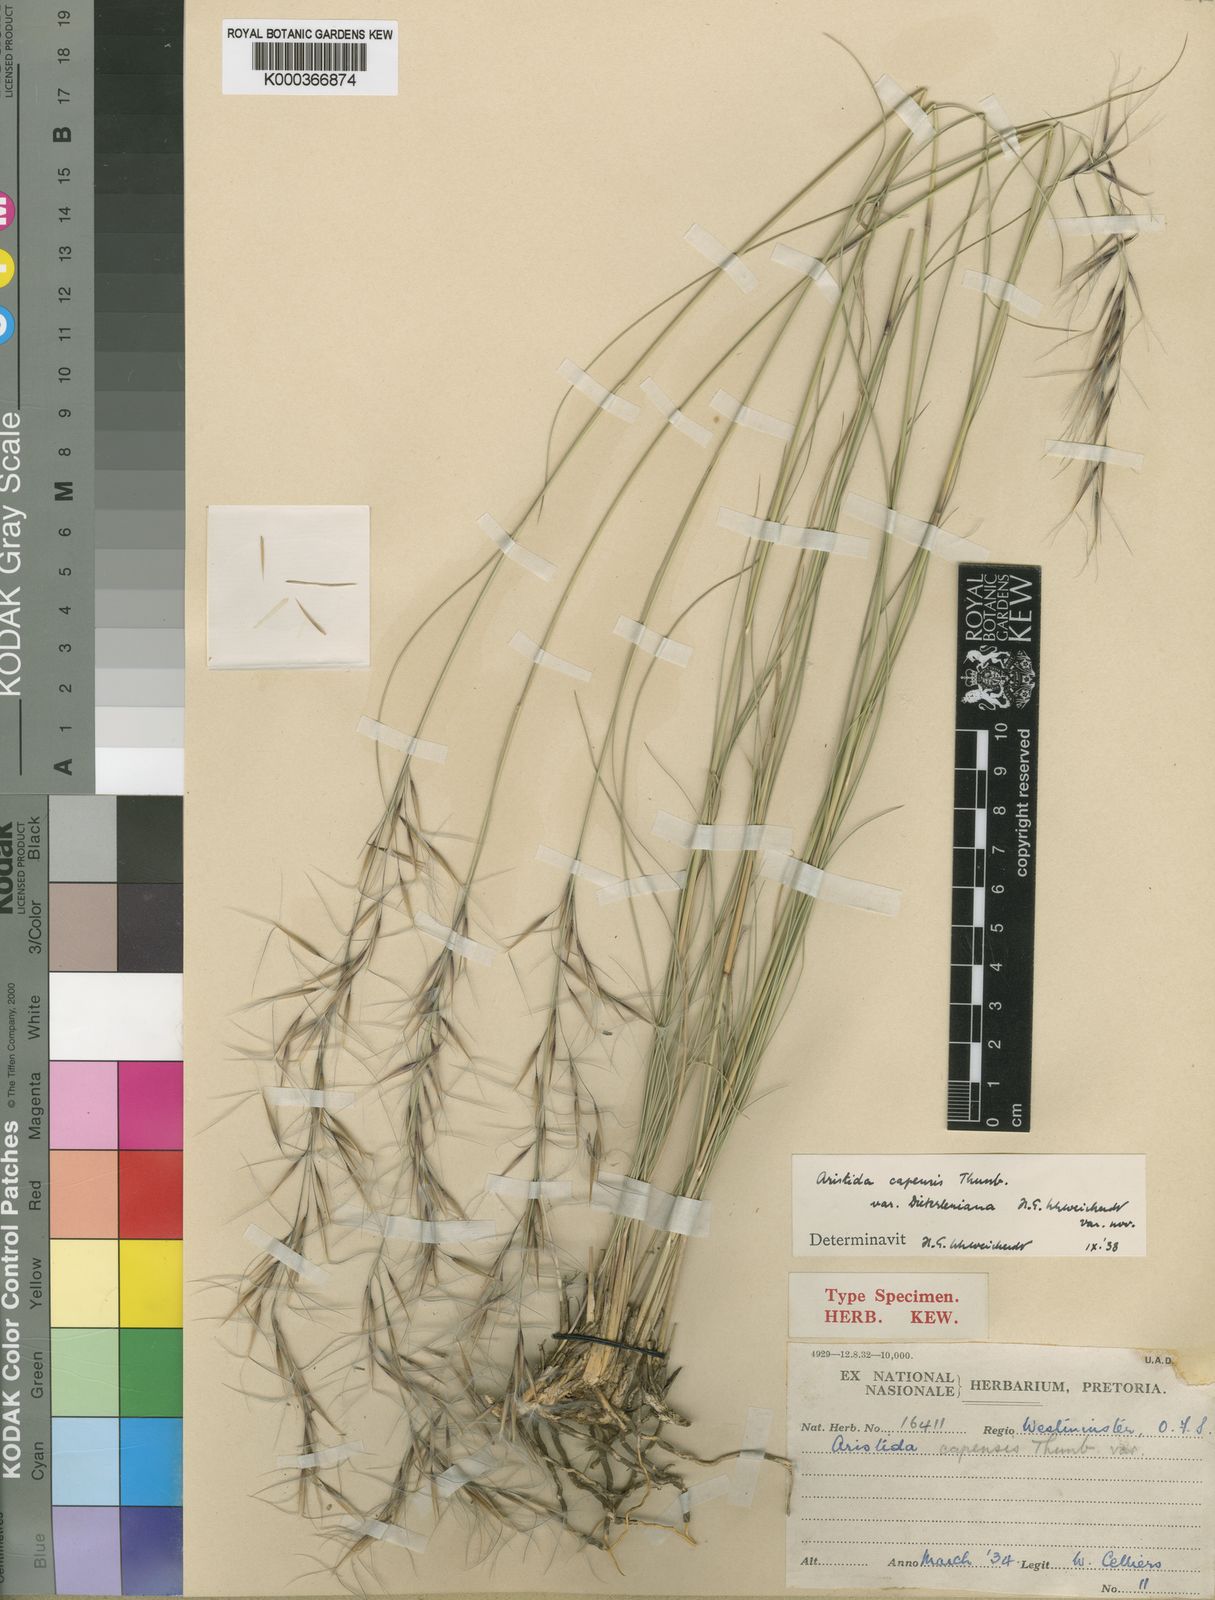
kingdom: Plantae
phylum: Tracheophyta
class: Liliopsida
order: Poales
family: Poaceae
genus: Stipagrostis
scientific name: Stipagrostis zeyheri
